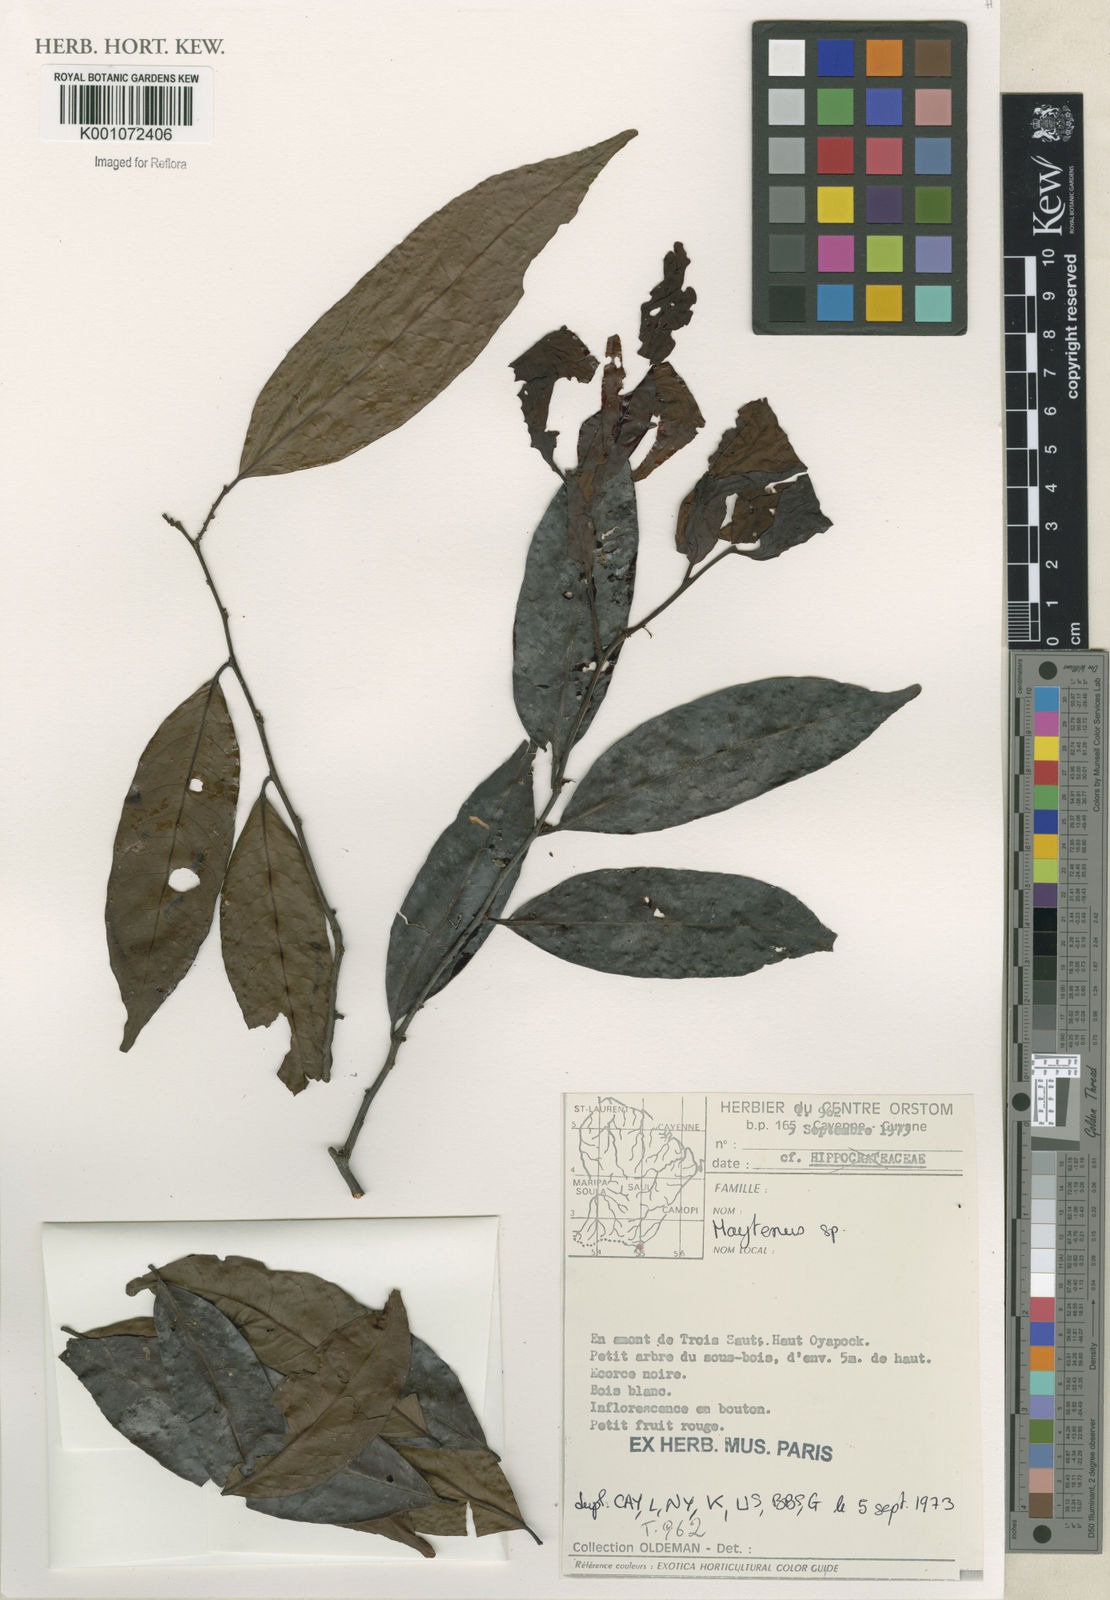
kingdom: Plantae
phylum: Tracheophyta
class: Magnoliopsida
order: Celastrales
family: Celastraceae
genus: Maytenus
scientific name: Maytenus
